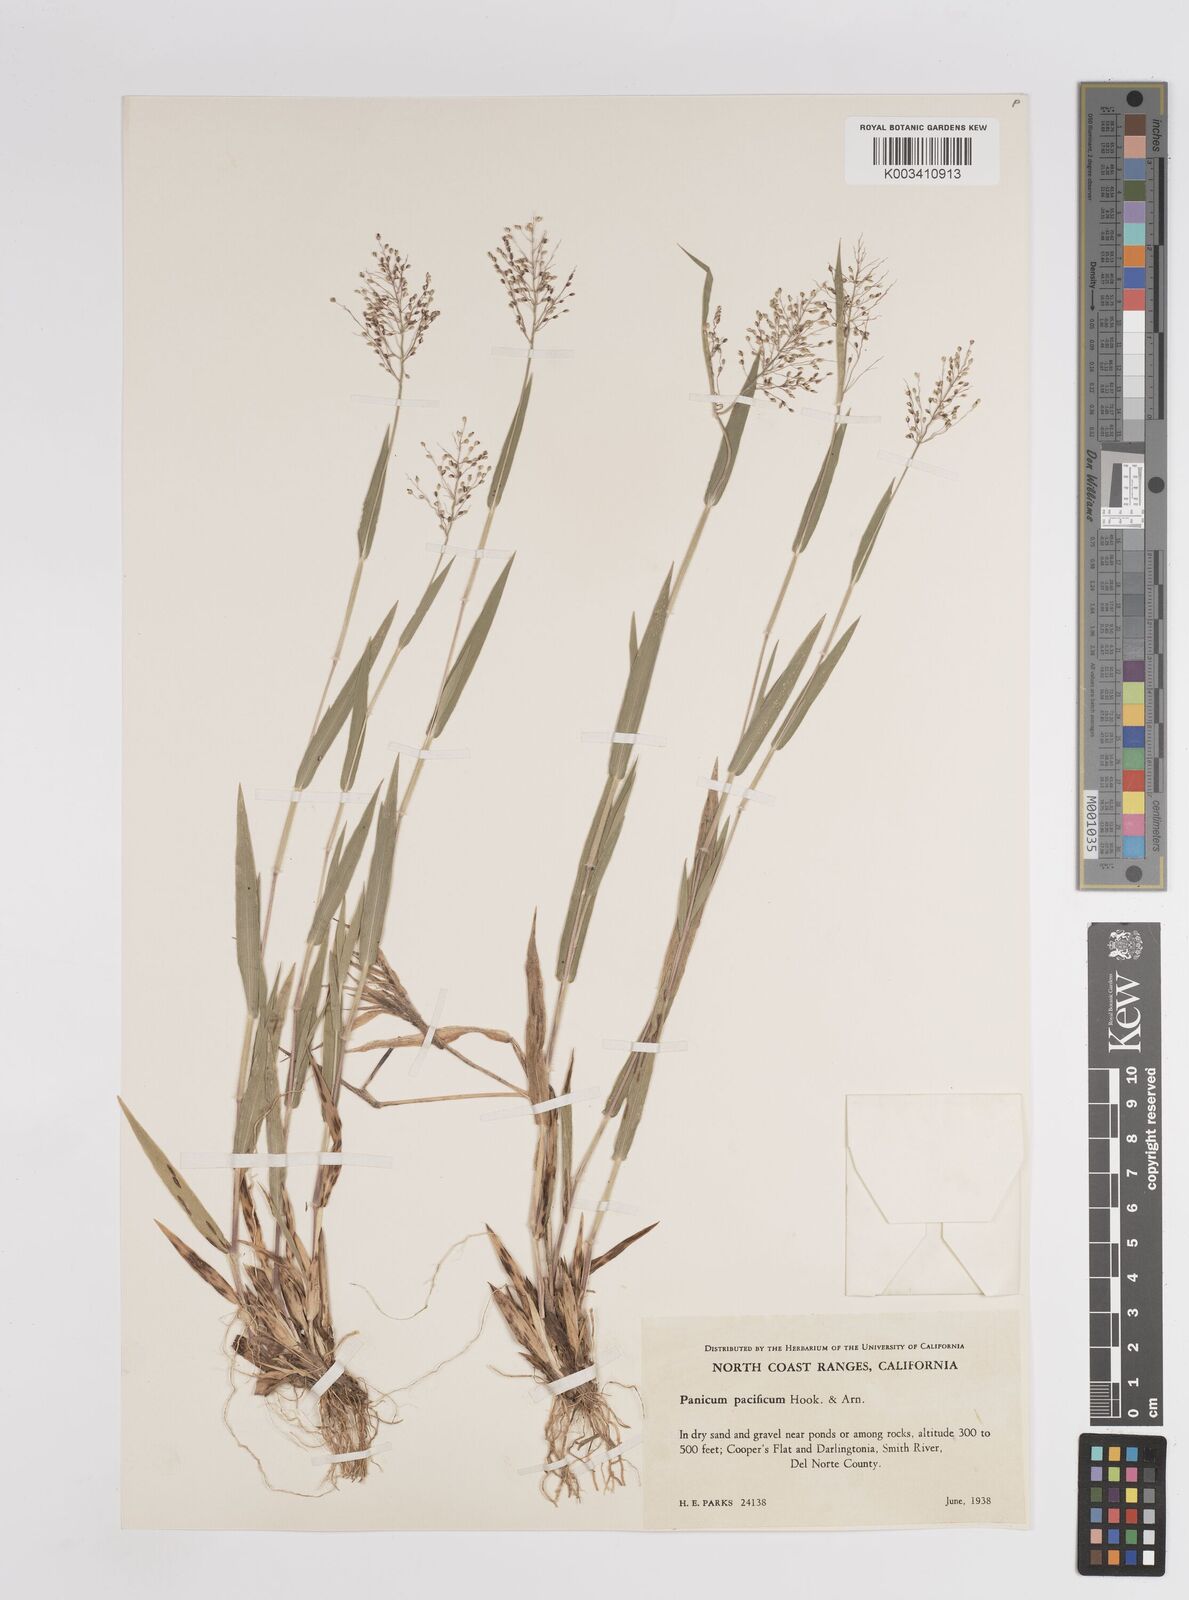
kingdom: Plantae
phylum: Tracheophyta
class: Liliopsida
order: Poales
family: Poaceae
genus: Dichanthelium
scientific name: Dichanthelium implicatum
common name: Slender-stemmed panicgrass
